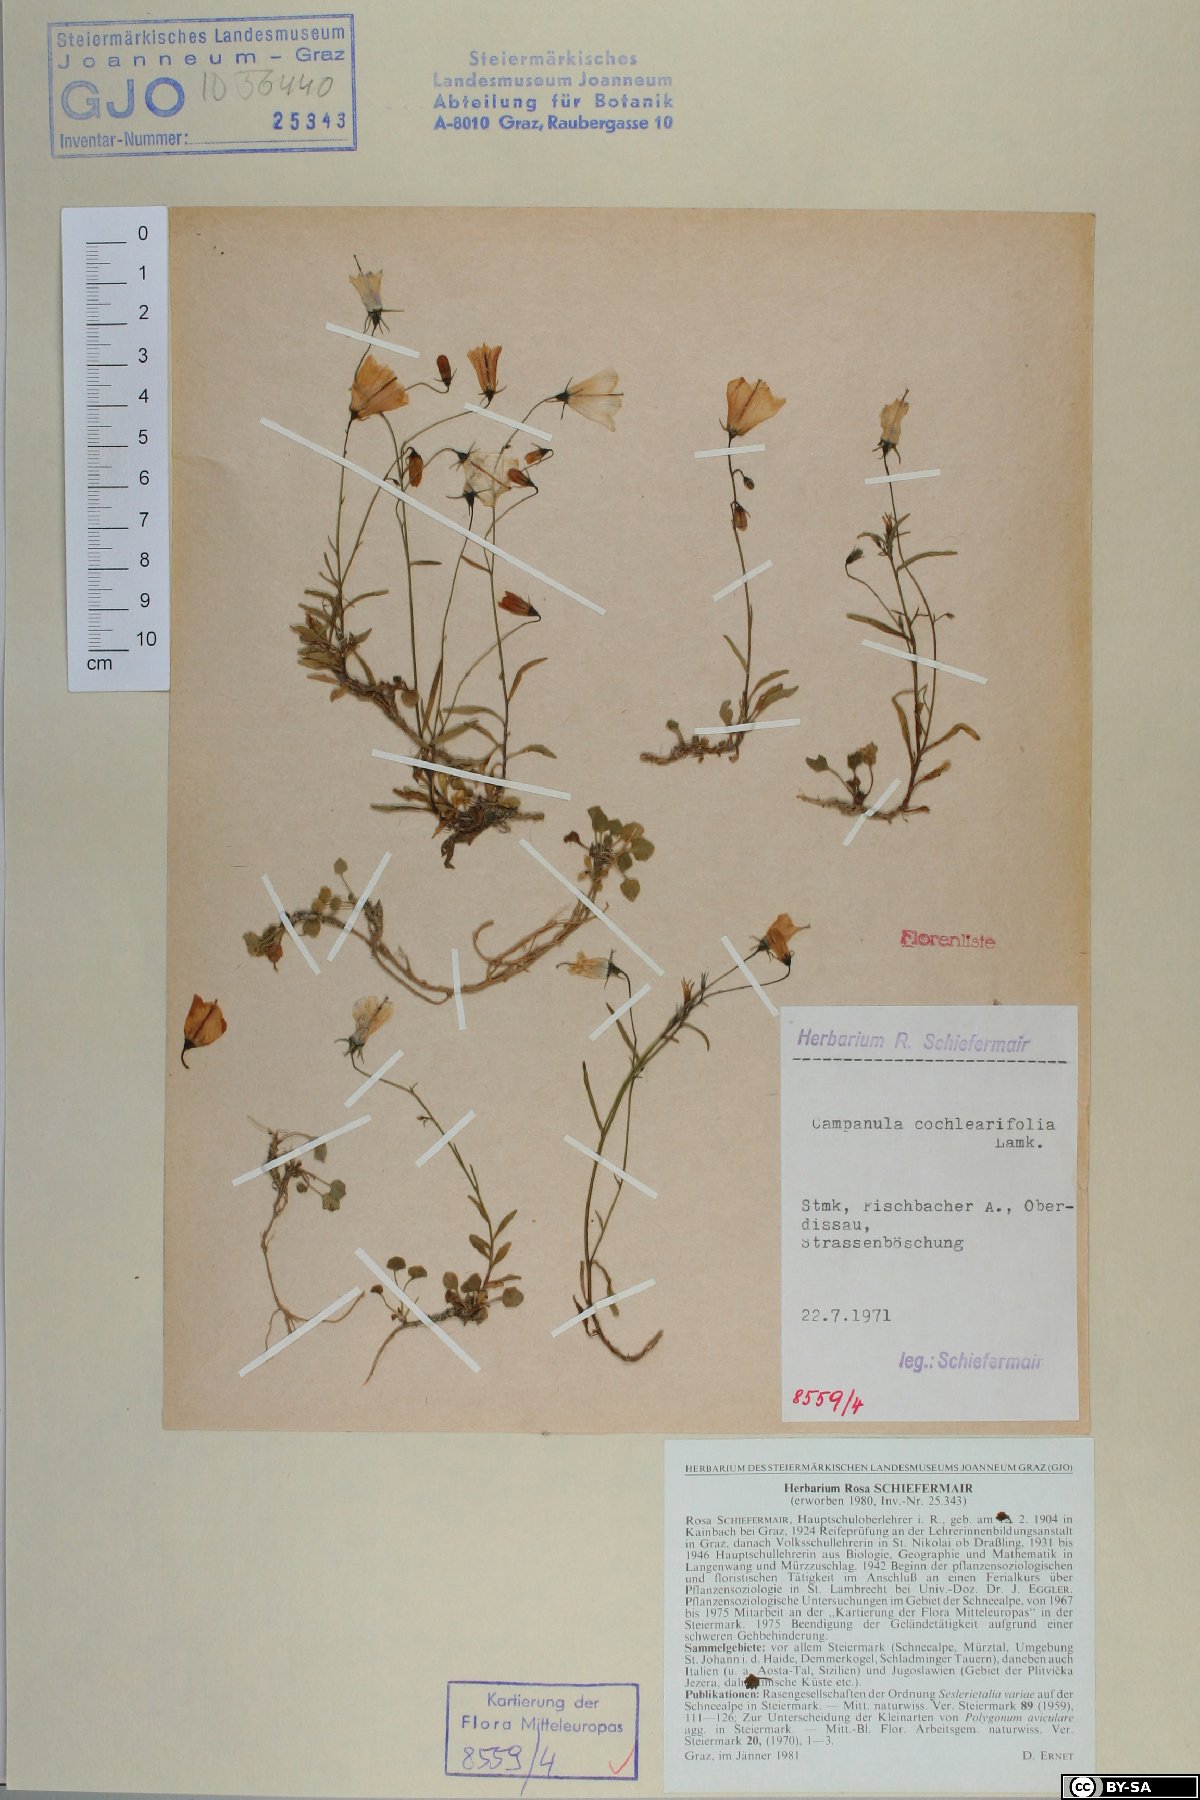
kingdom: Plantae
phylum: Tracheophyta
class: Magnoliopsida
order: Asterales
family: Campanulaceae
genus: Campanula
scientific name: Campanula cochleariifolia
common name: Fairies'-thimbles
